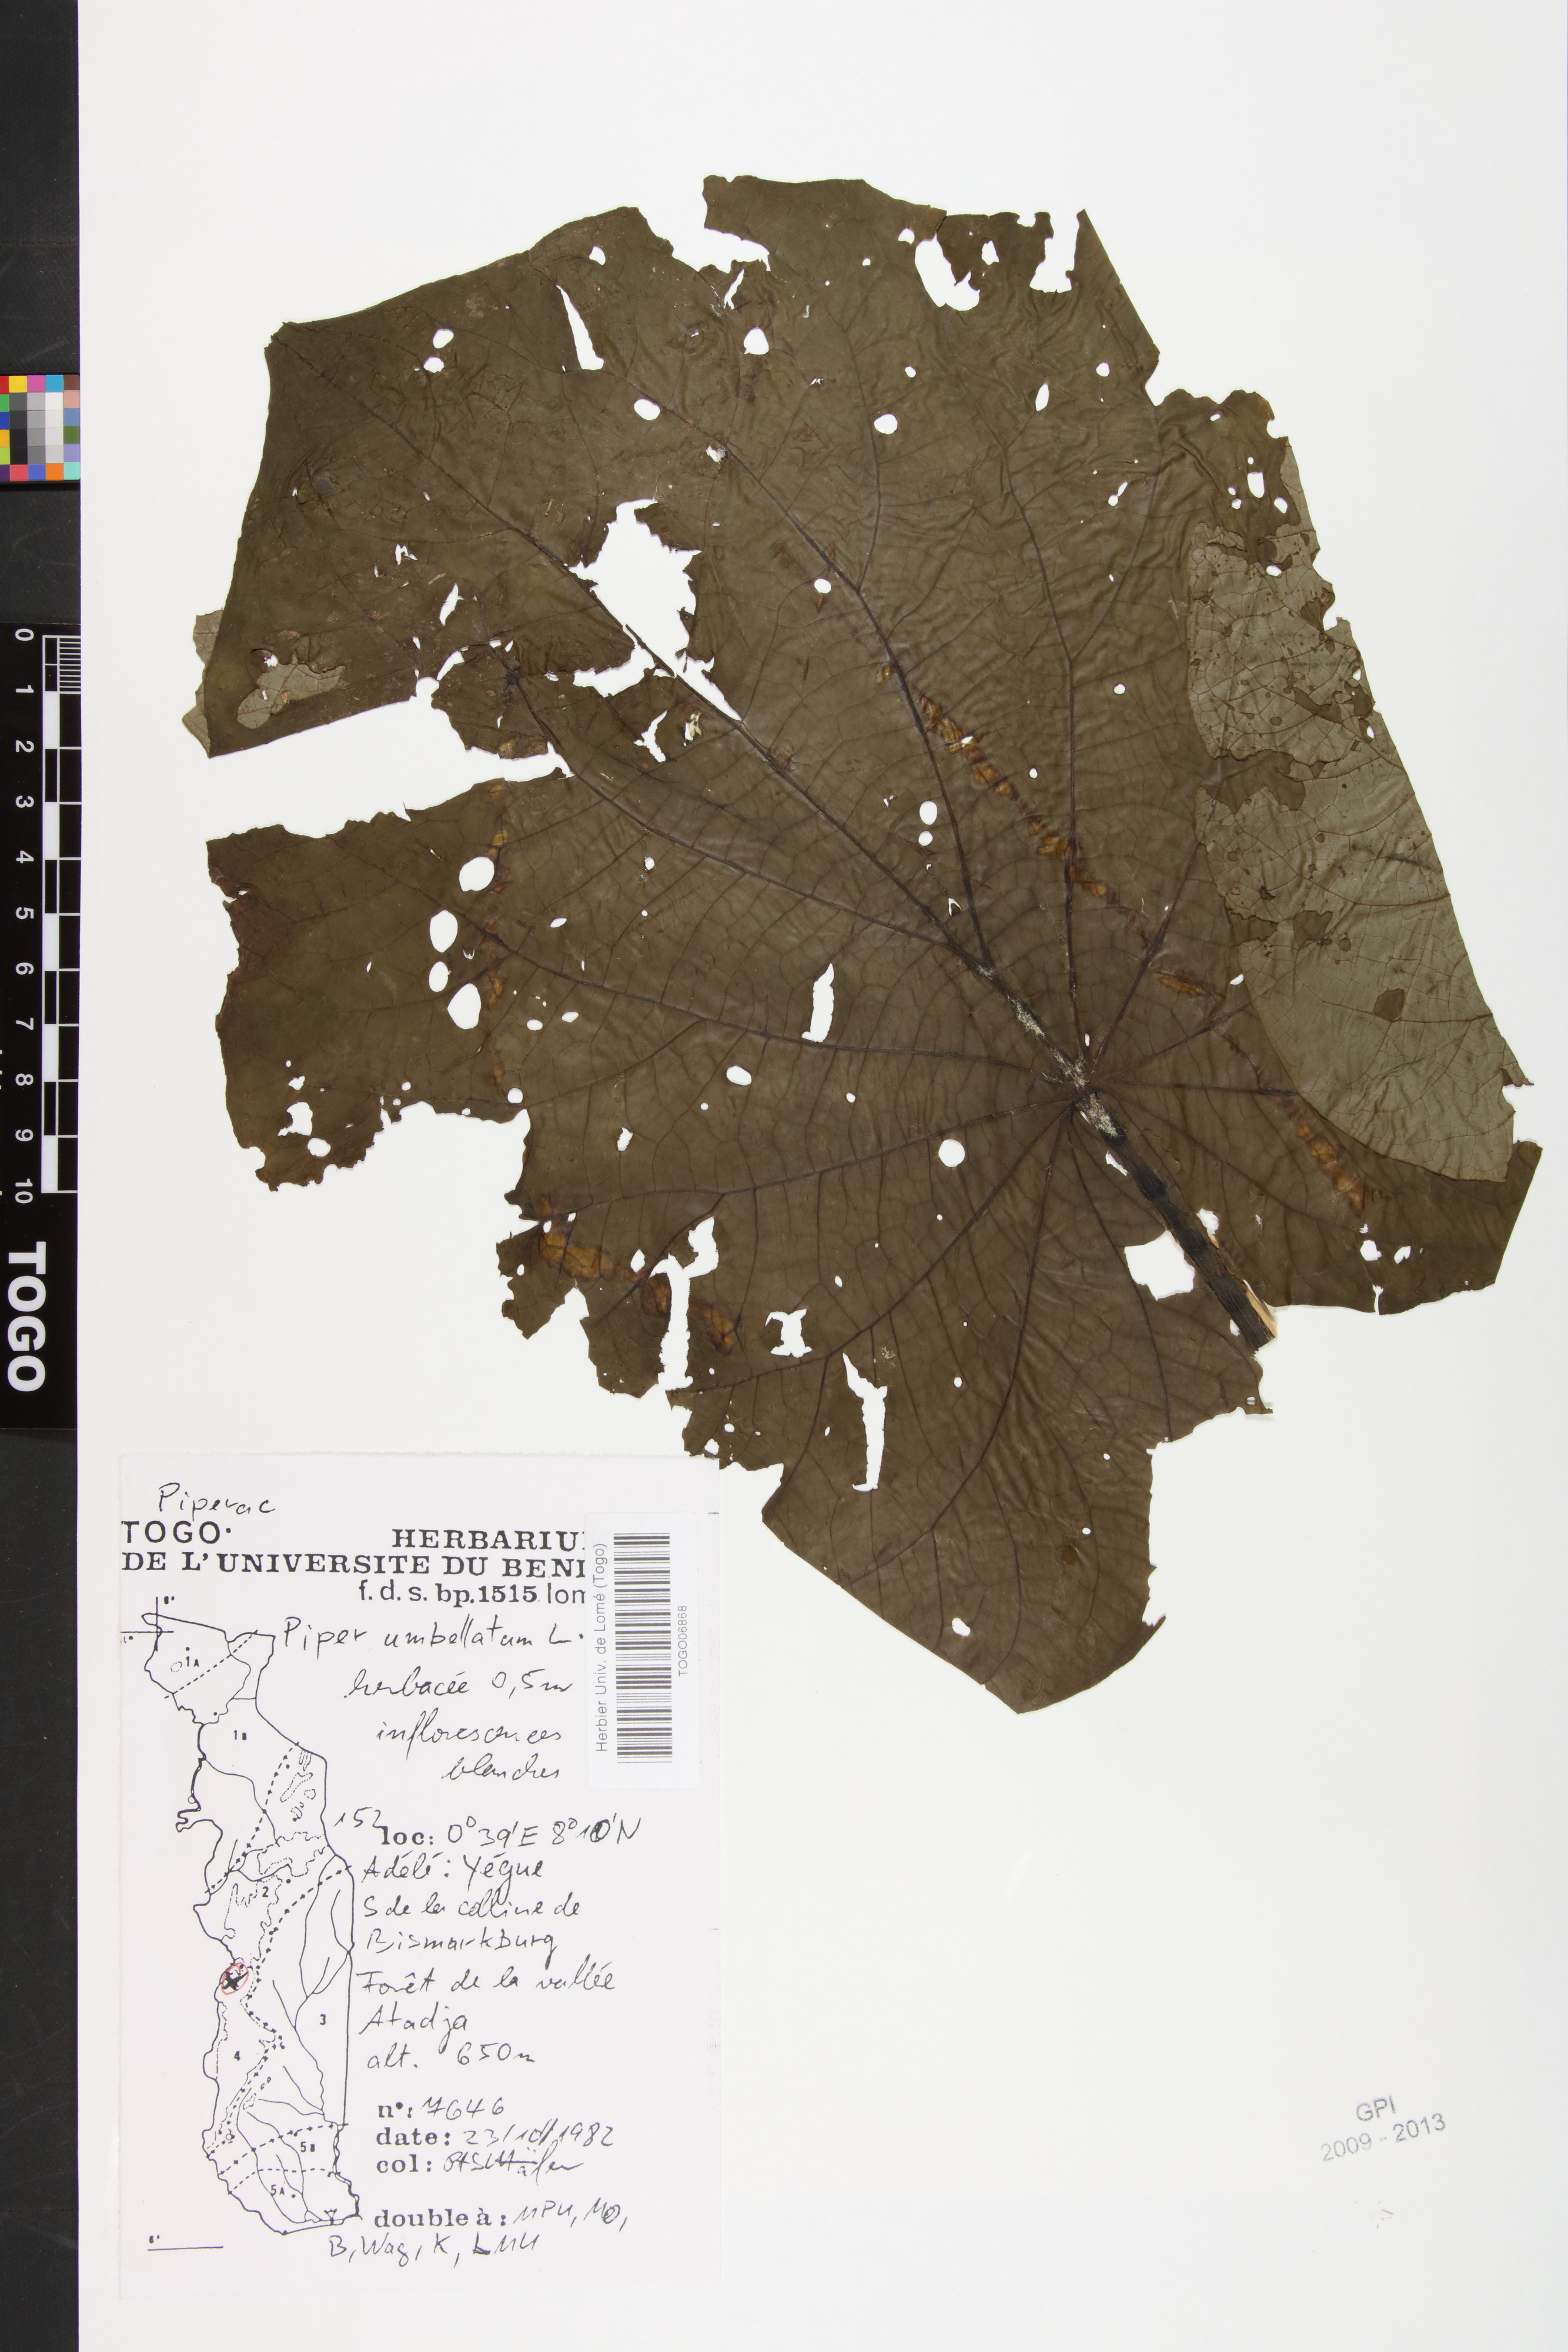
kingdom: Plantae
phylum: Tracheophyta
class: Magnoliopsida
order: Piperales
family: Piperaceae
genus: Piper
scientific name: Piper umbellatum
